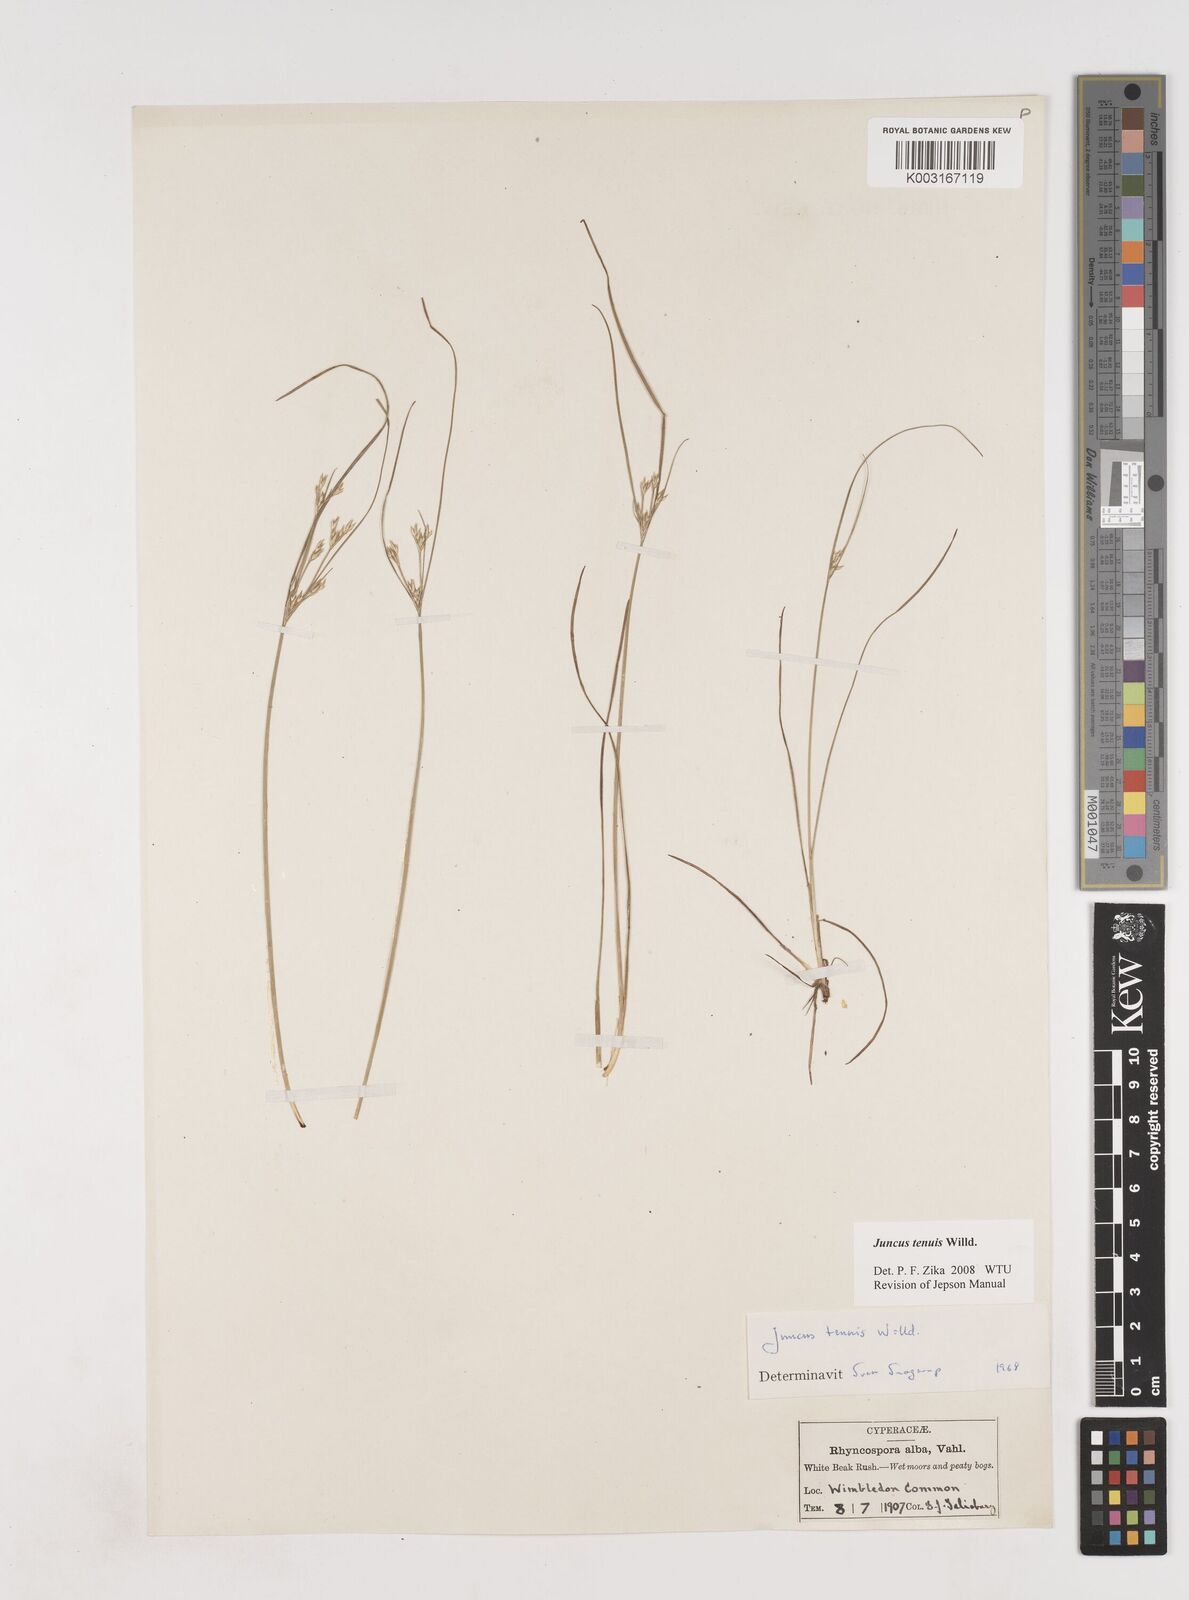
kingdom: Plantae
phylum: Tracheophyta
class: Liliopsida
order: Poales
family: Juncaceae
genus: Juncus
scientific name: Juncus tenuis
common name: Slender rush
